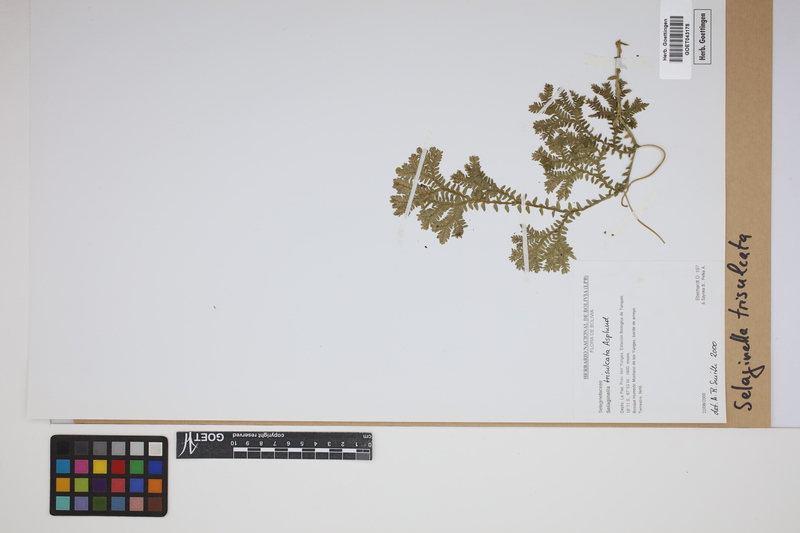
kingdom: Plantae
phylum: Tracheophyta
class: Lycopodiopsida
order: Selaginellales
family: Selaginellaceae
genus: Selaginella
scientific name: Selaginella trisulcata
